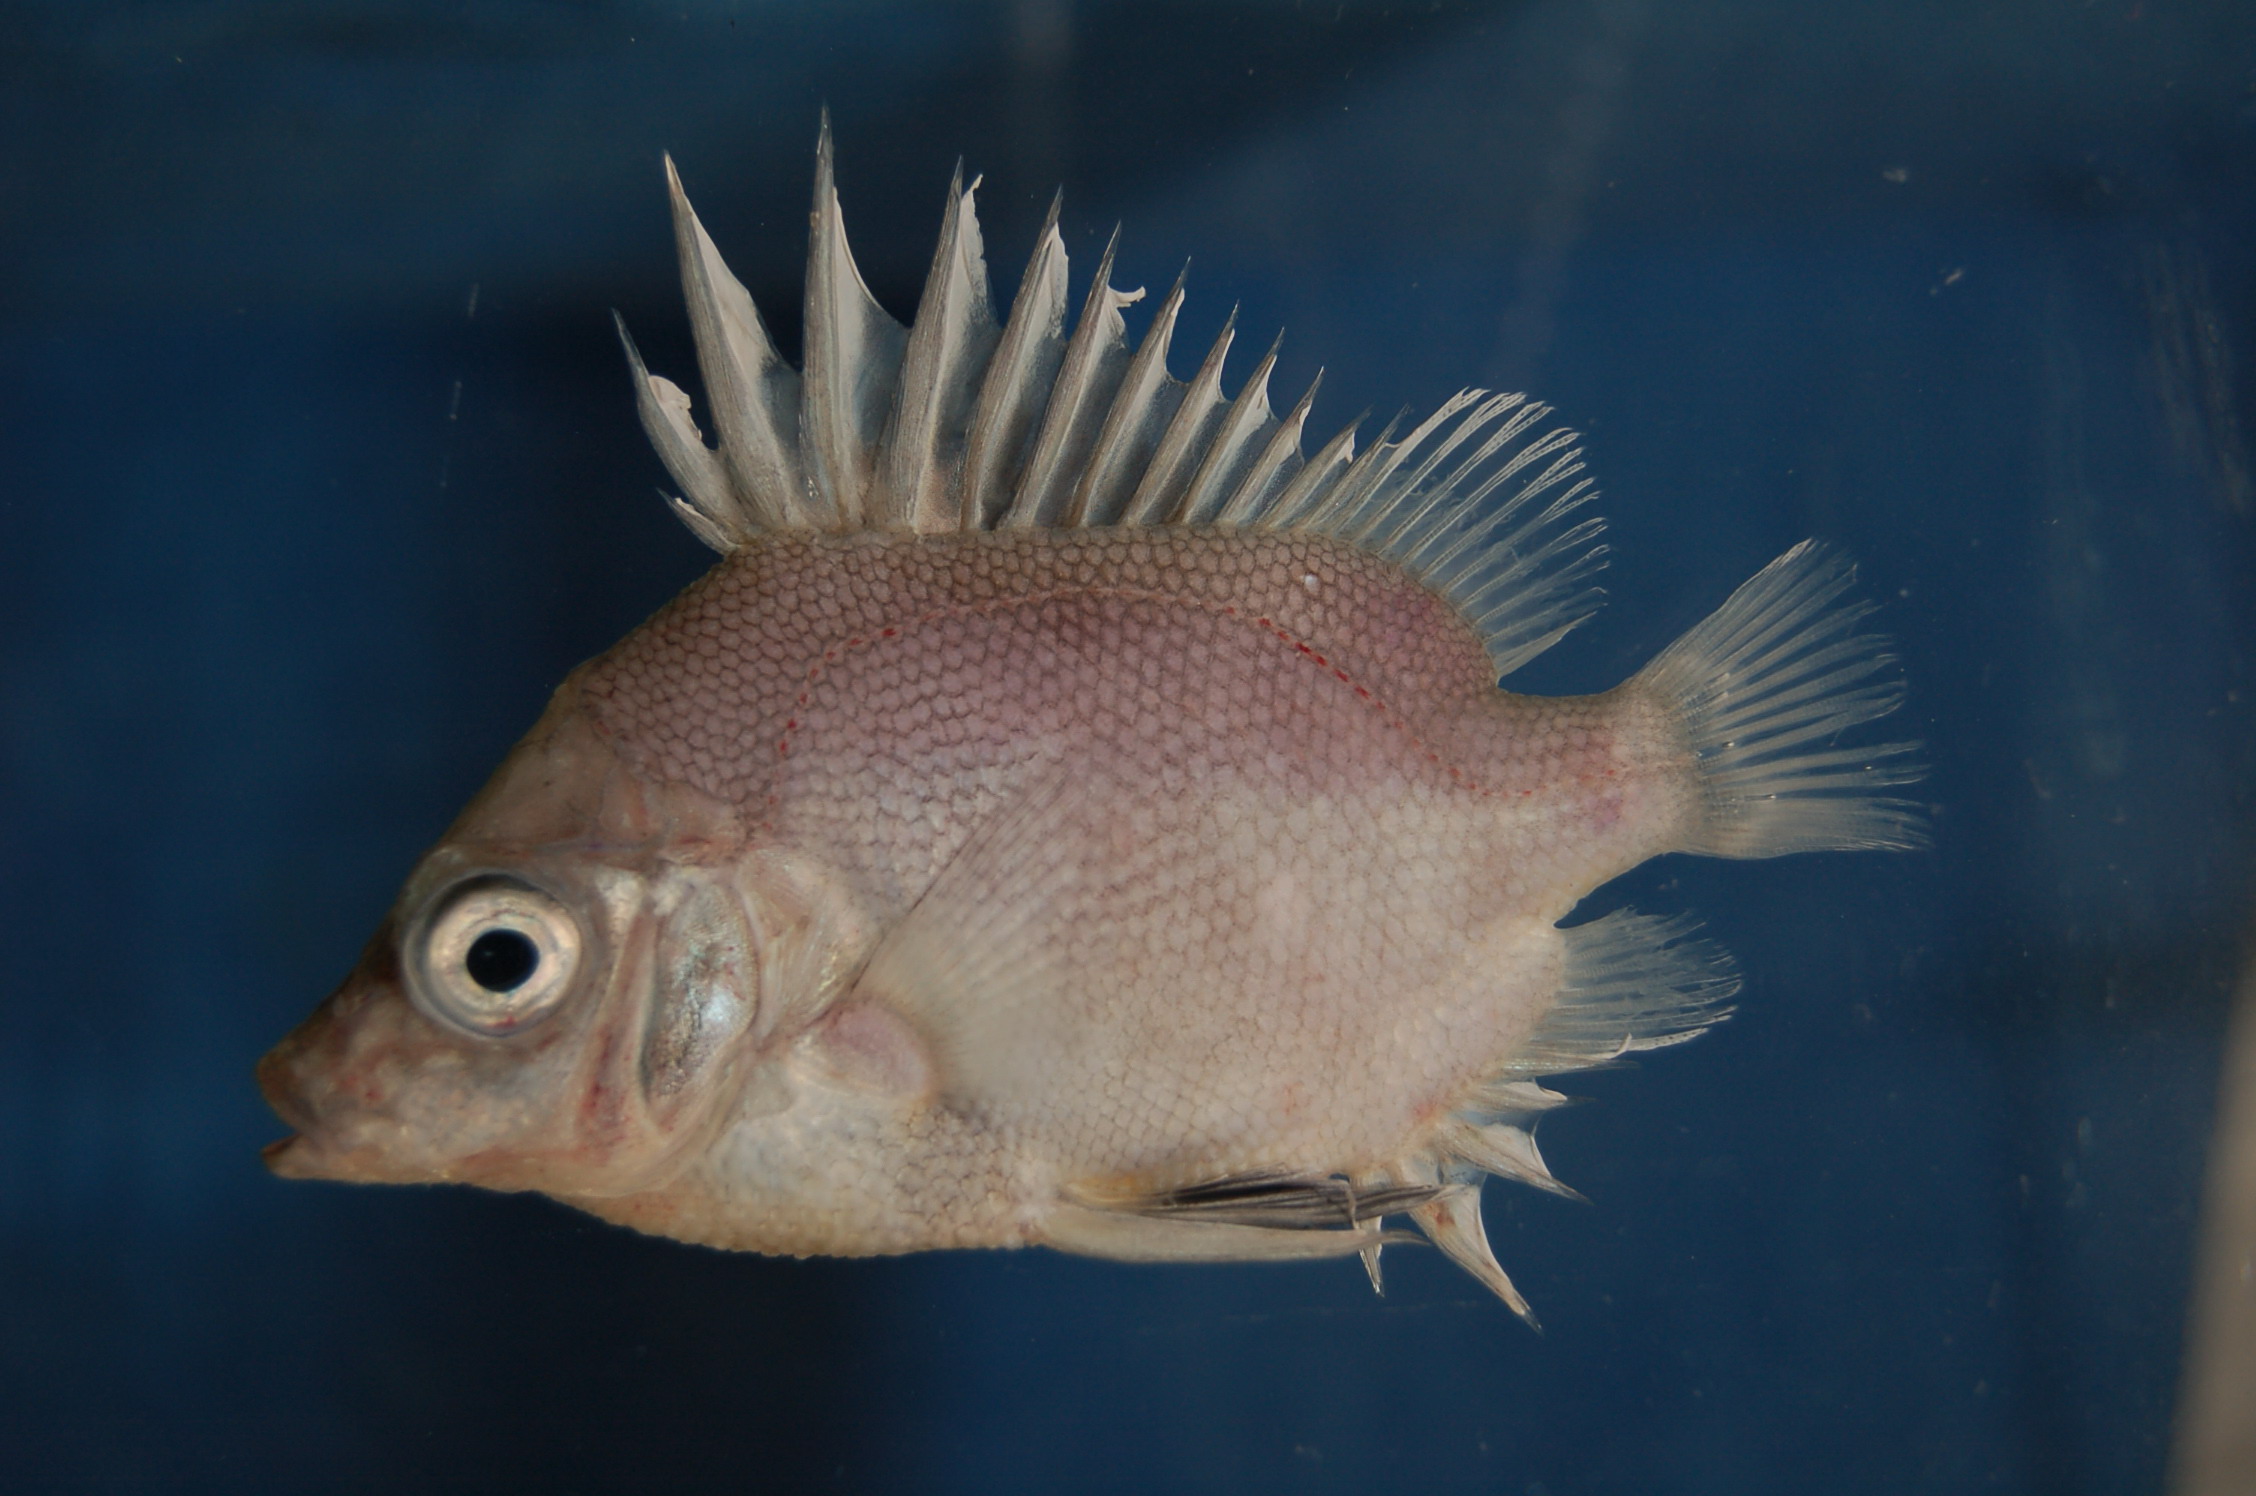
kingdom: Animalia
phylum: Chordata
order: Perciformes
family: Pentacerotidae
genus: Pentaceros
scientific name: Pentaceros capensis
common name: Cape armourhead
